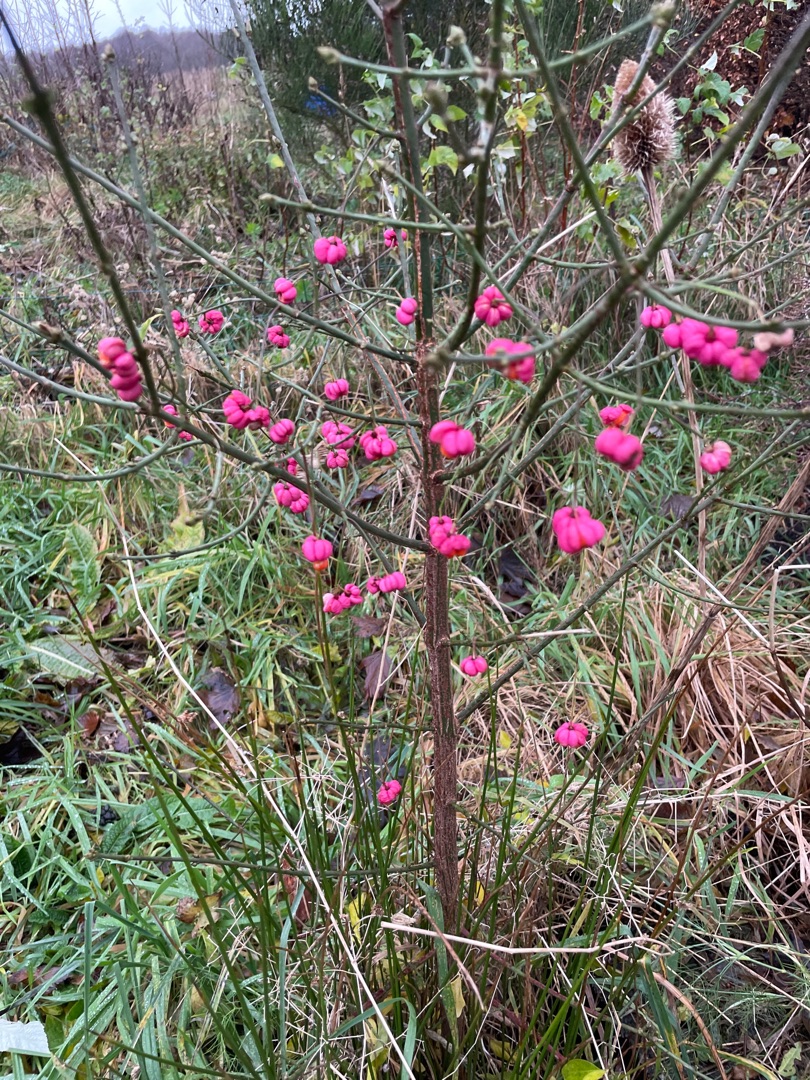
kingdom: Plantae
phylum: Tracheophyta
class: Magnoliopsida
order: Celastrales
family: Celastraceae
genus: Euonymus
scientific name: Euonymus europaeus
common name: Benved
